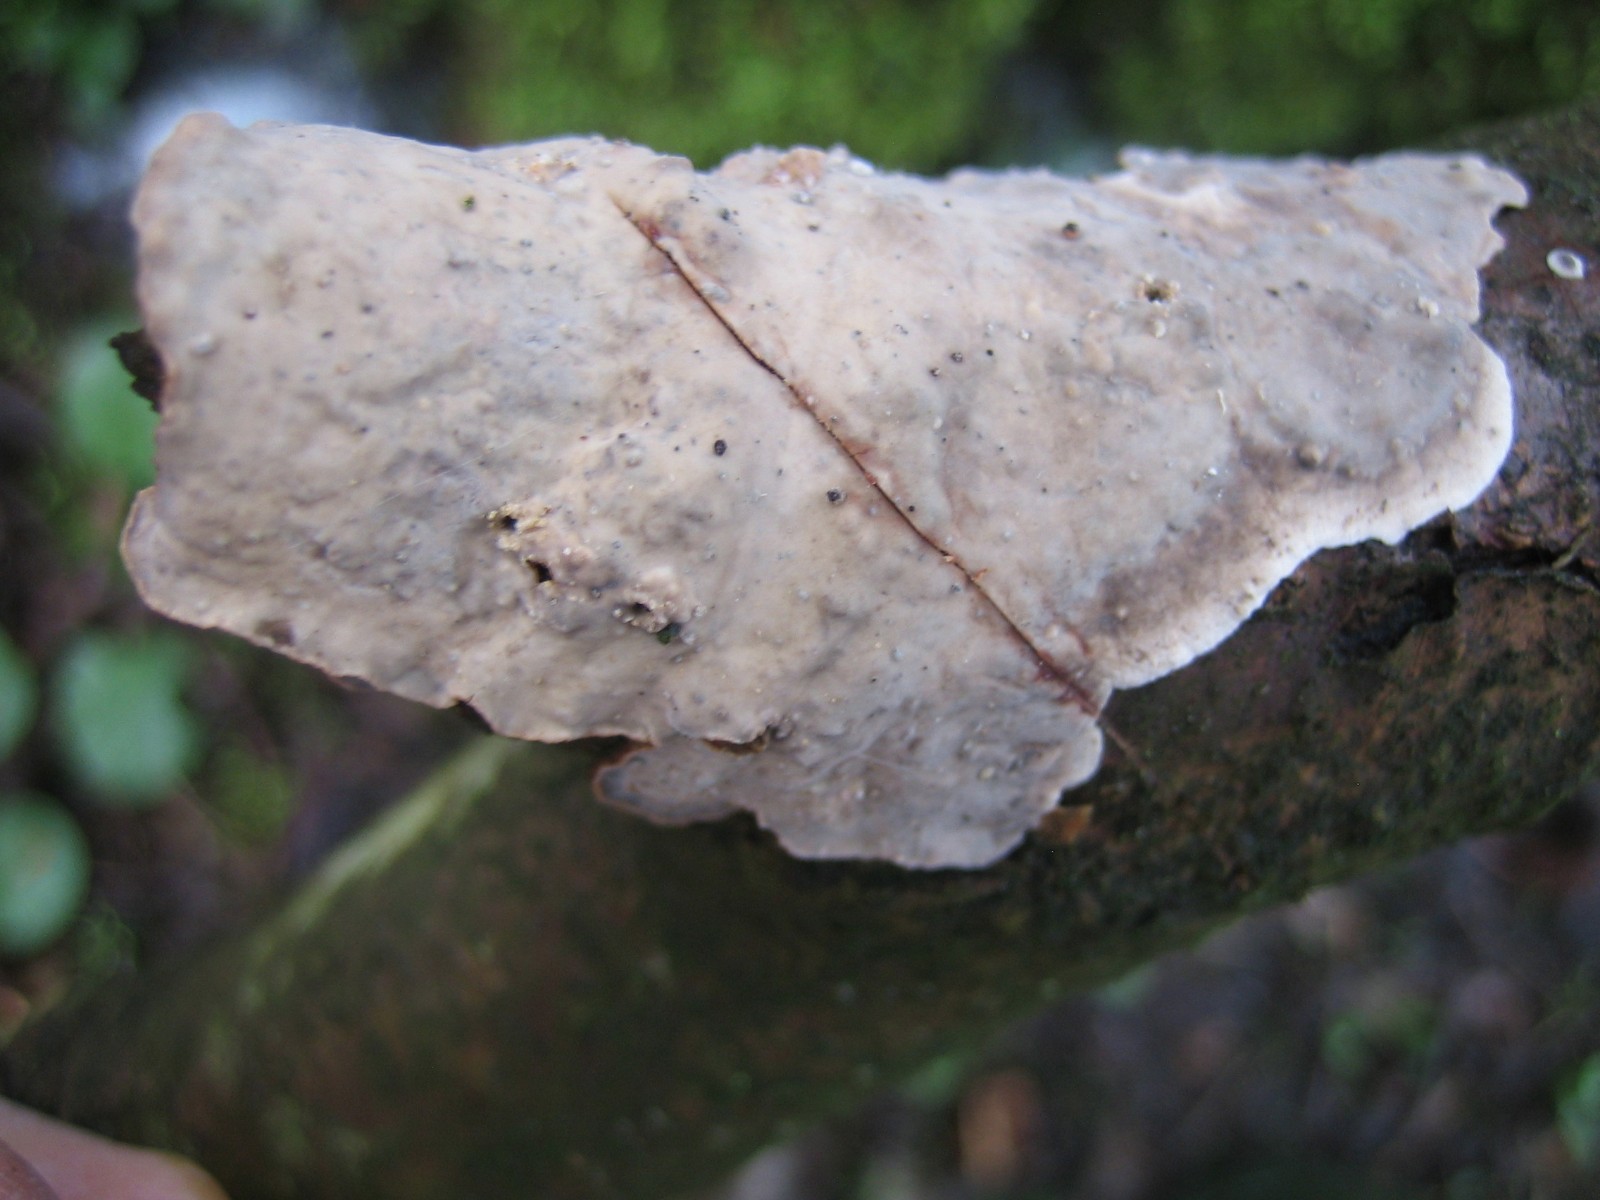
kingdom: Fungi
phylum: Basidiomycota
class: Agaricomycetes
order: Russulales
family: Stereaceae
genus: Stereum
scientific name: Stereum rugosum
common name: rynket lædersvamp
